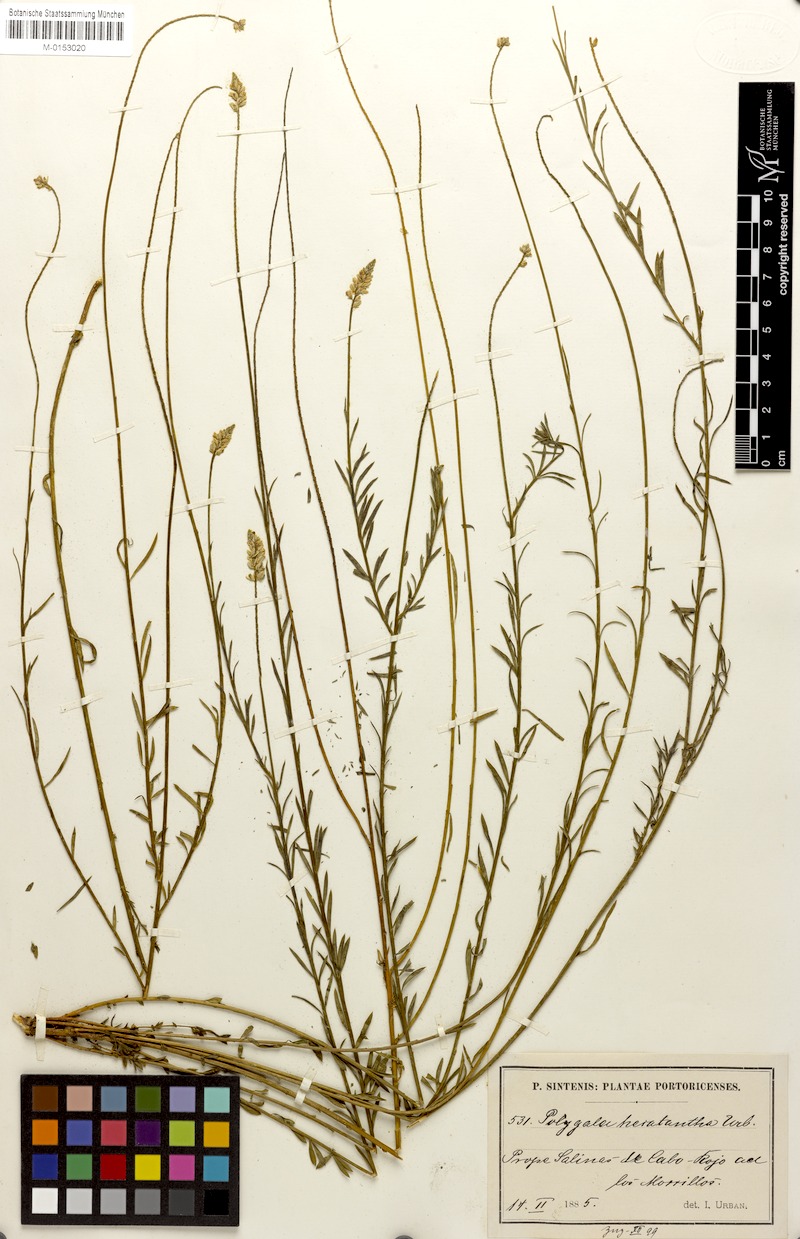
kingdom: Plantae
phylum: Tracheophyta
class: Magnoliopsida
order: Fabales
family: Polygalaceae
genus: Polygala
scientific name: Polygala hecatantha
